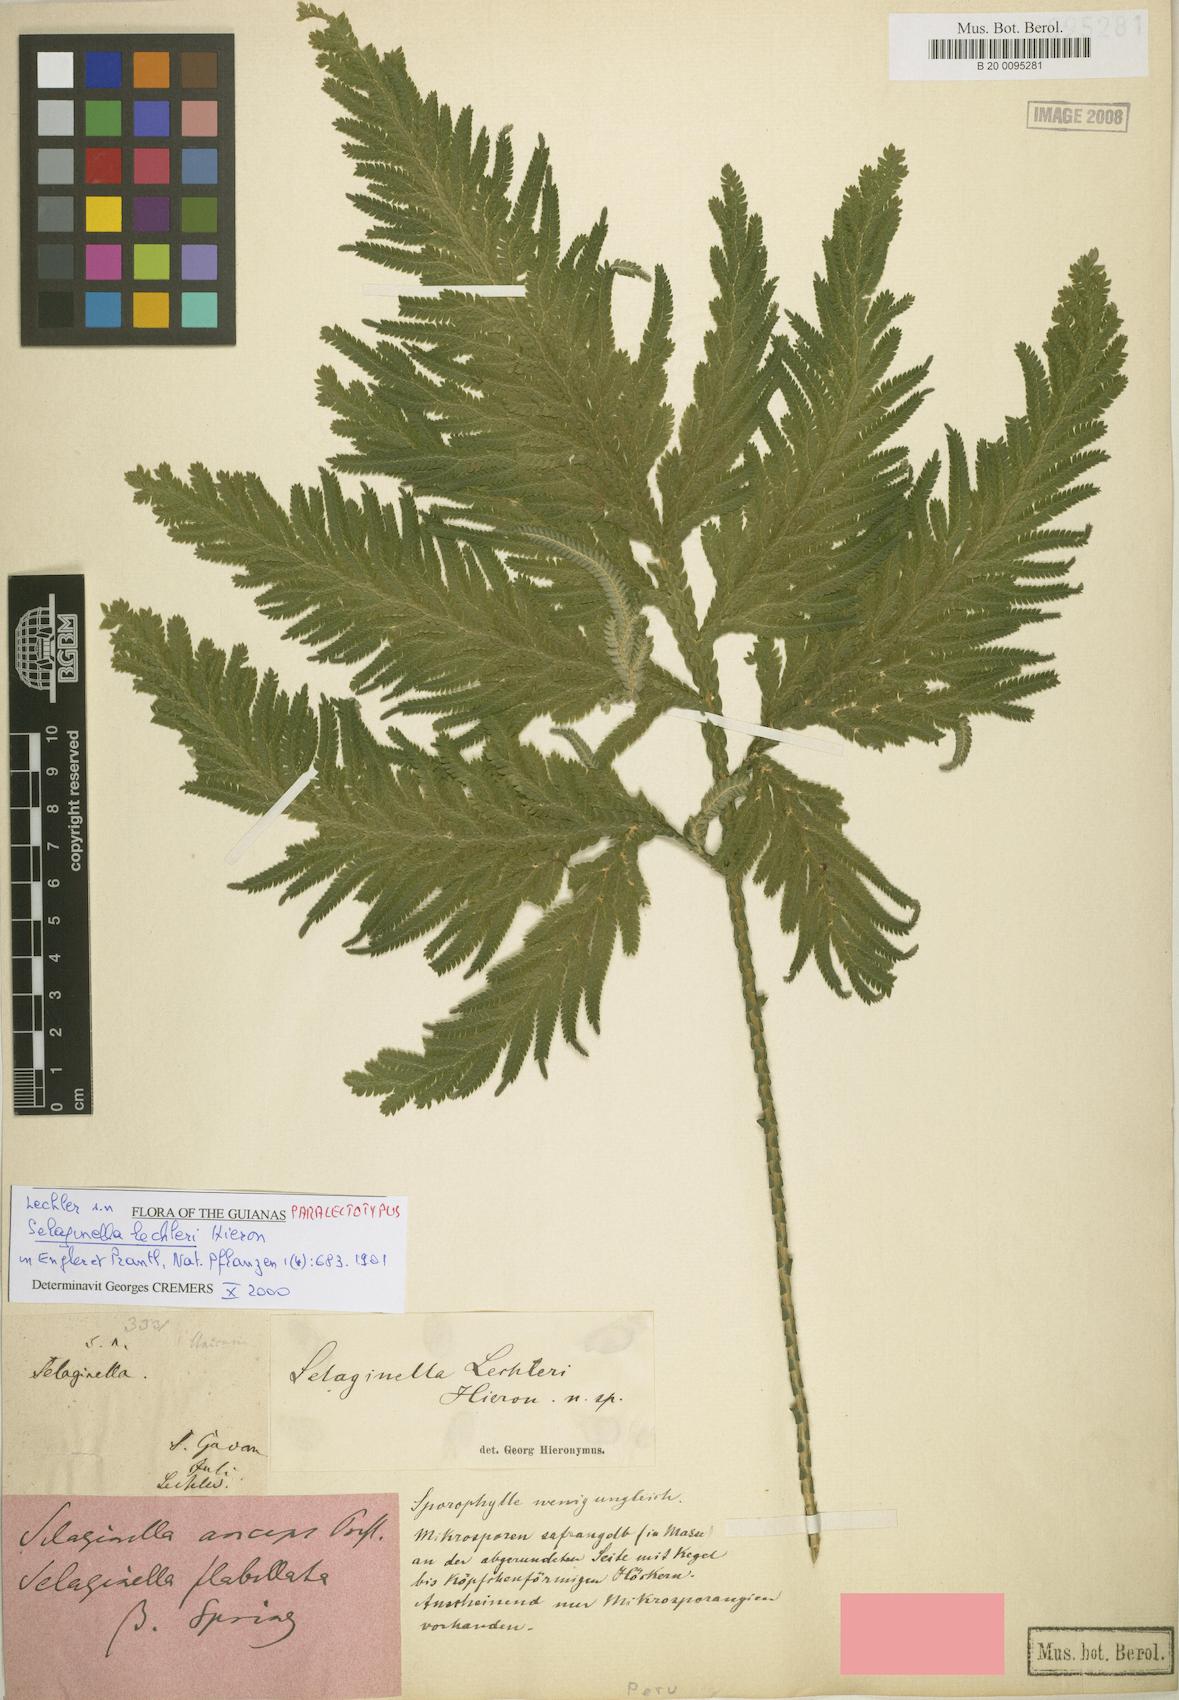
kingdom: Plantae
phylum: Tracheophyta
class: Lycopodiopsida
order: Selaginellales
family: Selaginellaceae
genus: Selaginella
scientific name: Selaginella lechleri
